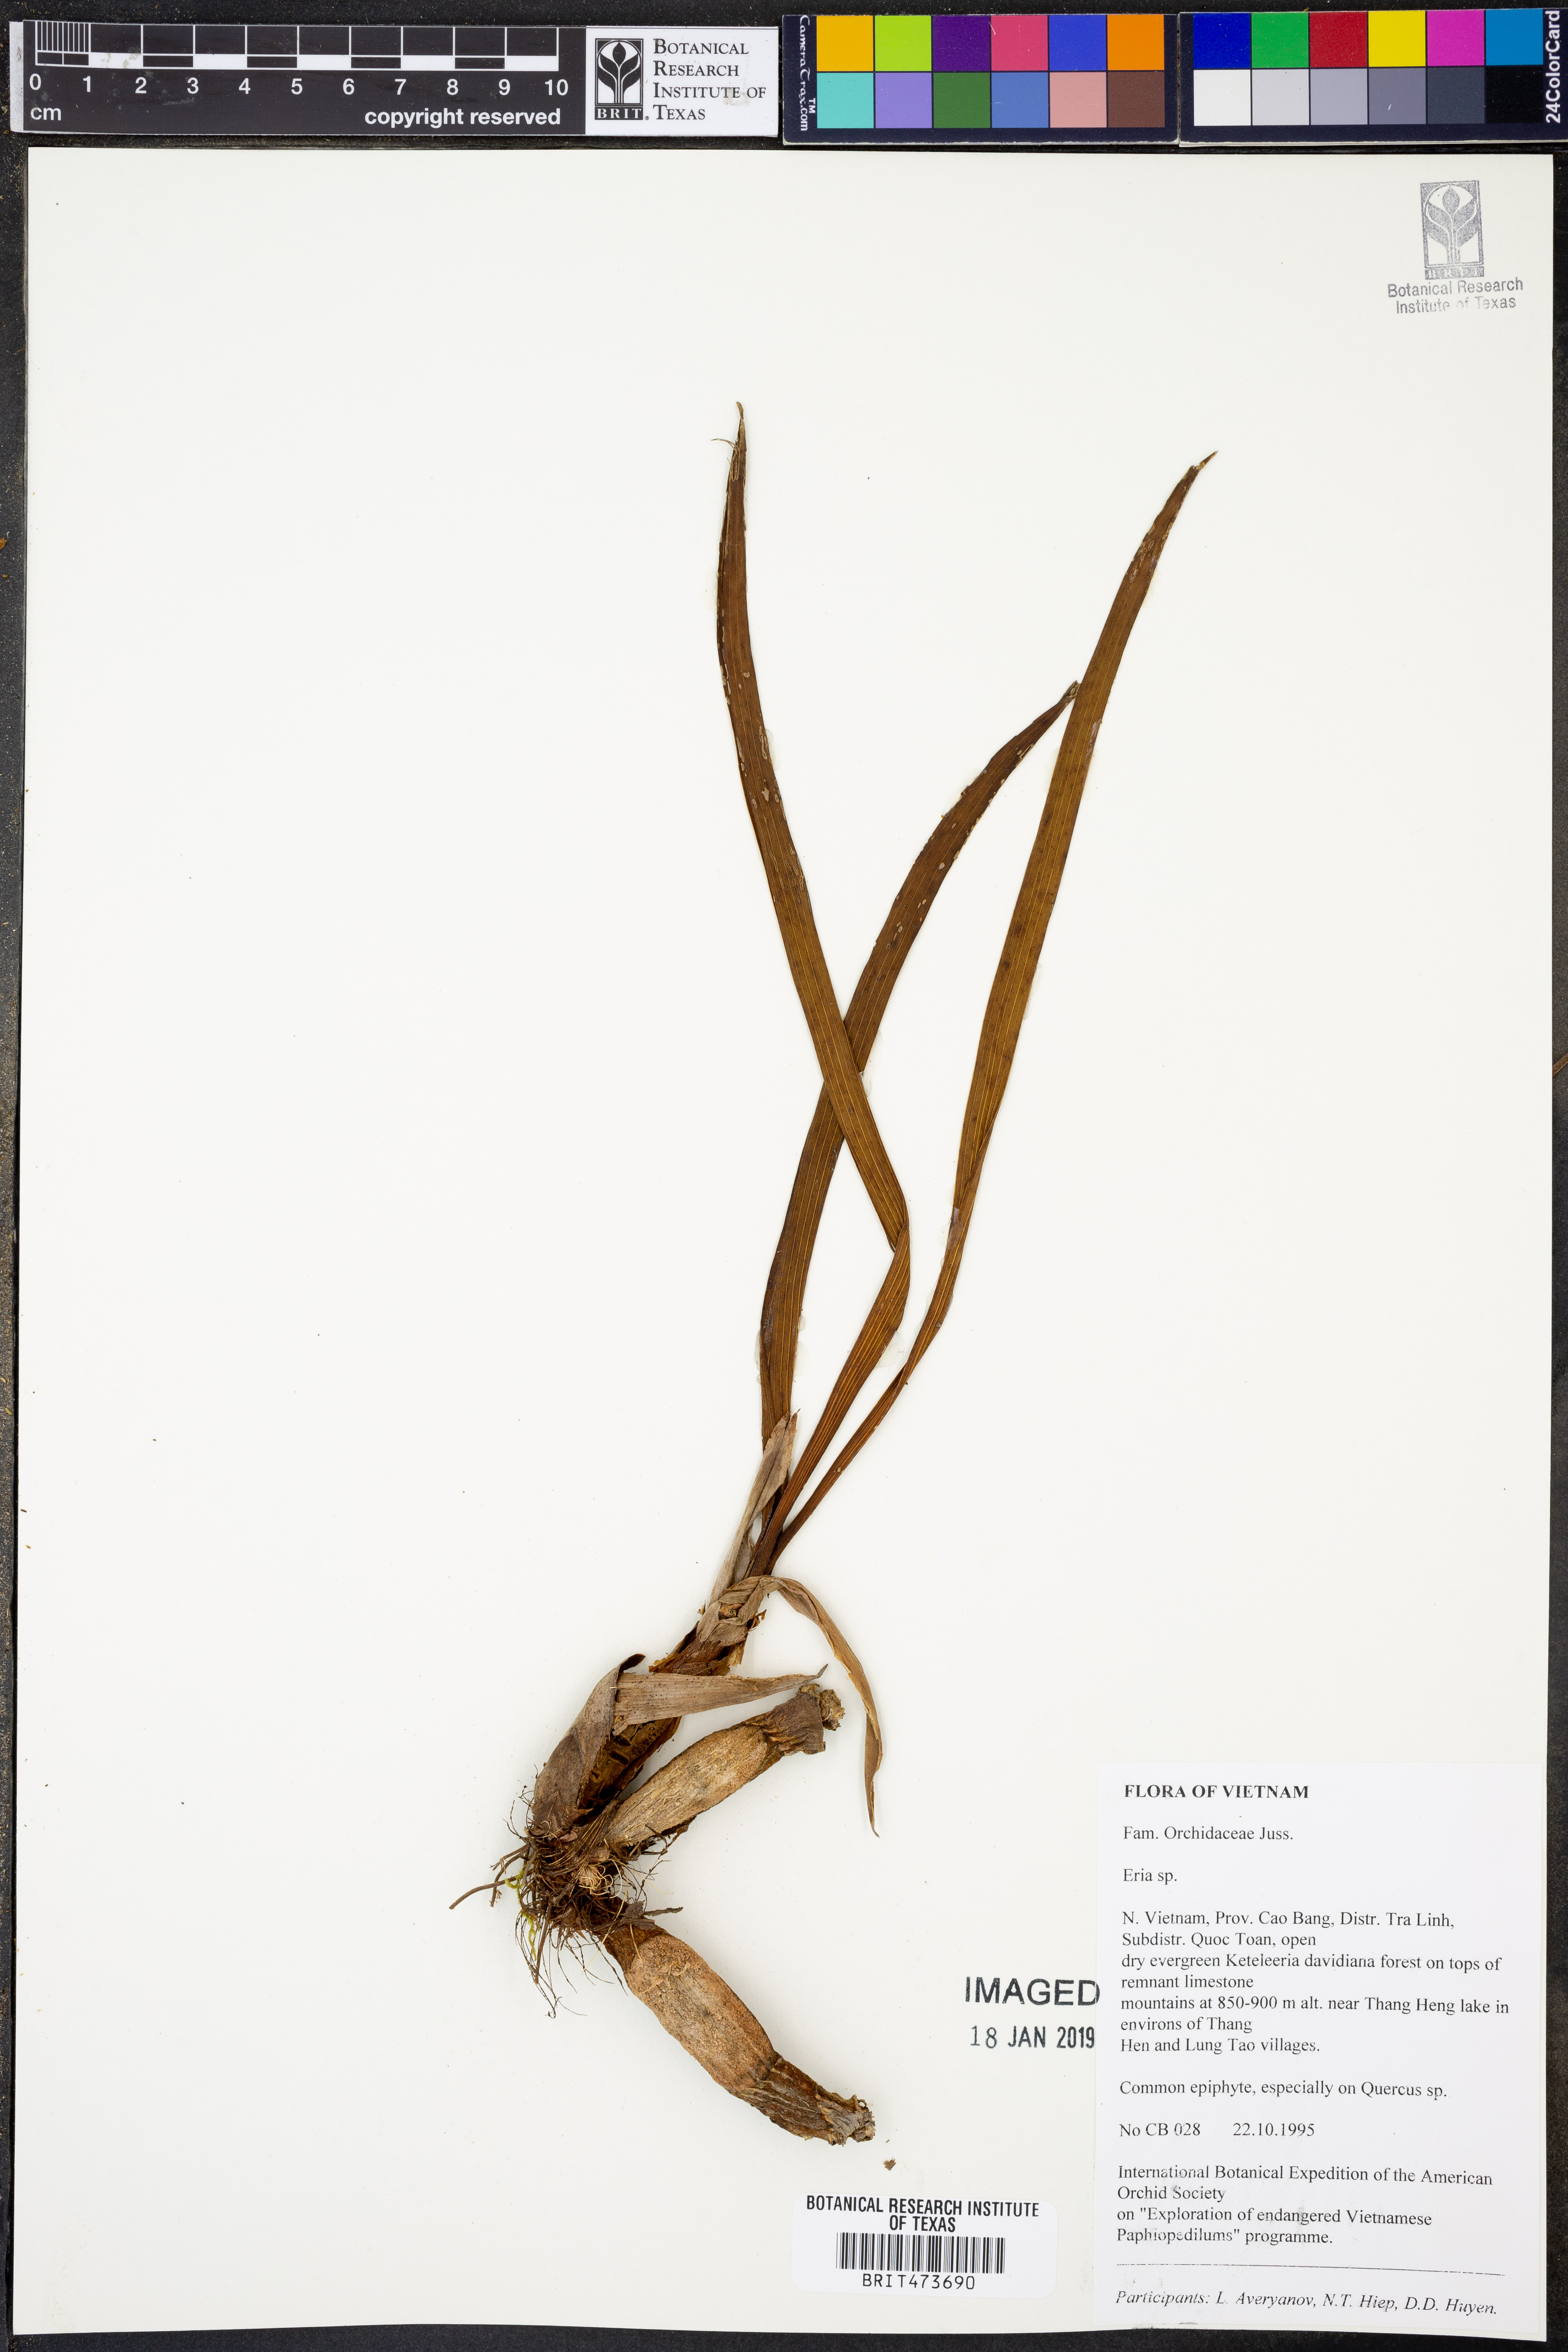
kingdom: Plantae
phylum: Tracheophyta
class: Liliopsida
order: Asparagales
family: Orchidaceae
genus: Eria
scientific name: Eria
